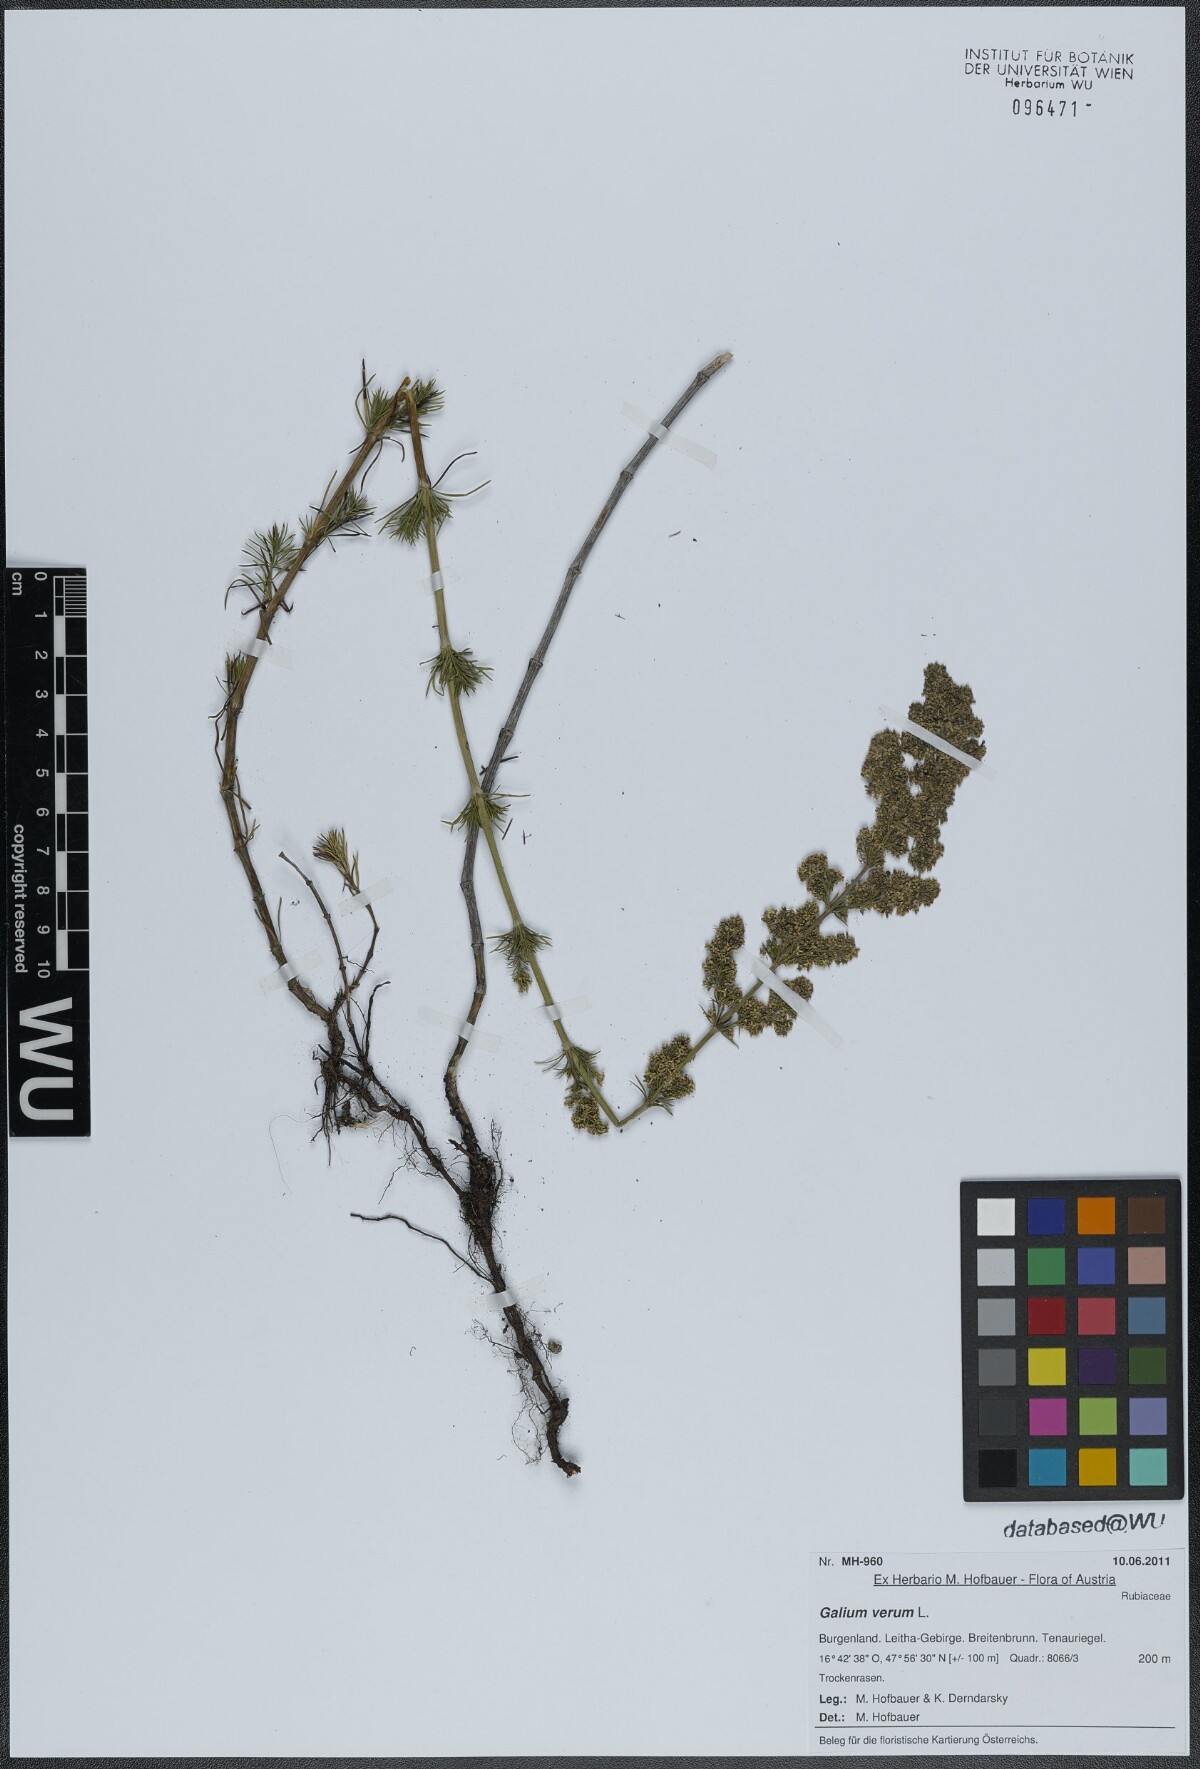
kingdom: Plantae
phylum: Tracheophyta
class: Magnoliopsida
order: Gentianales
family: Rubiaceae
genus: Galium
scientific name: Galium verum
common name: Lady's bedstraw
